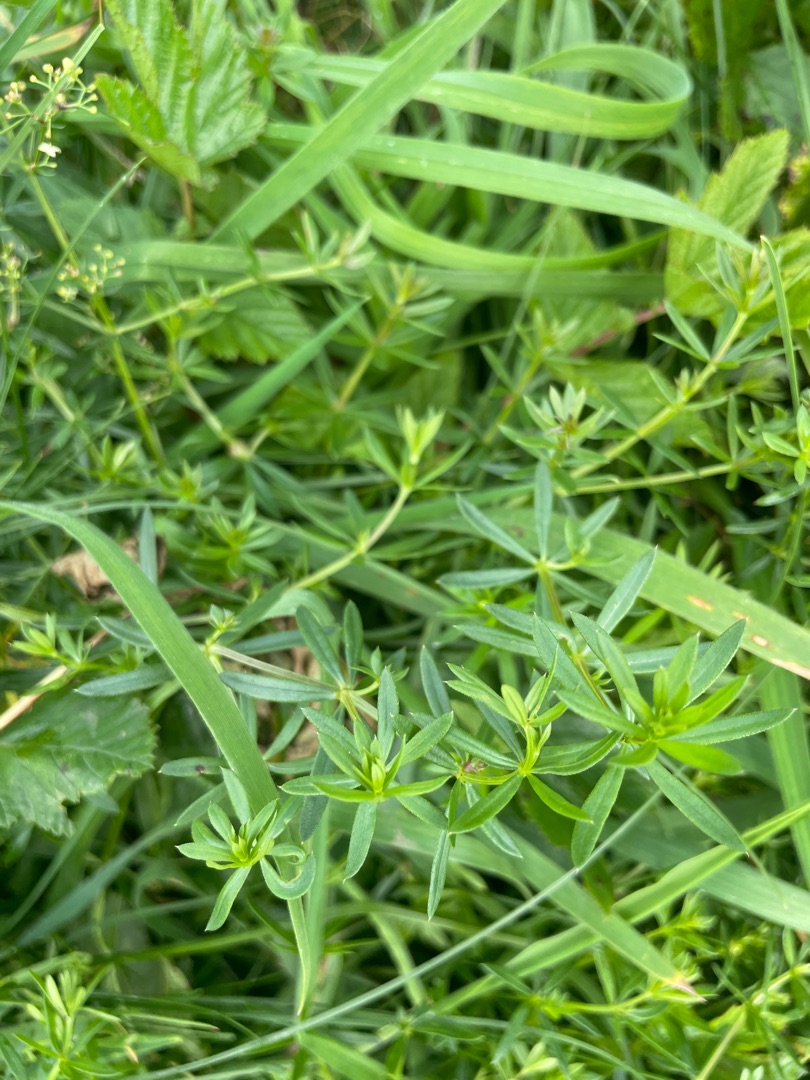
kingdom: Plantae
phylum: Tracheophyta
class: Magnoliopsida
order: Gentianales
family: Rubiaceae
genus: Galium
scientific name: Galium mollugo
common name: Hvid snerre
